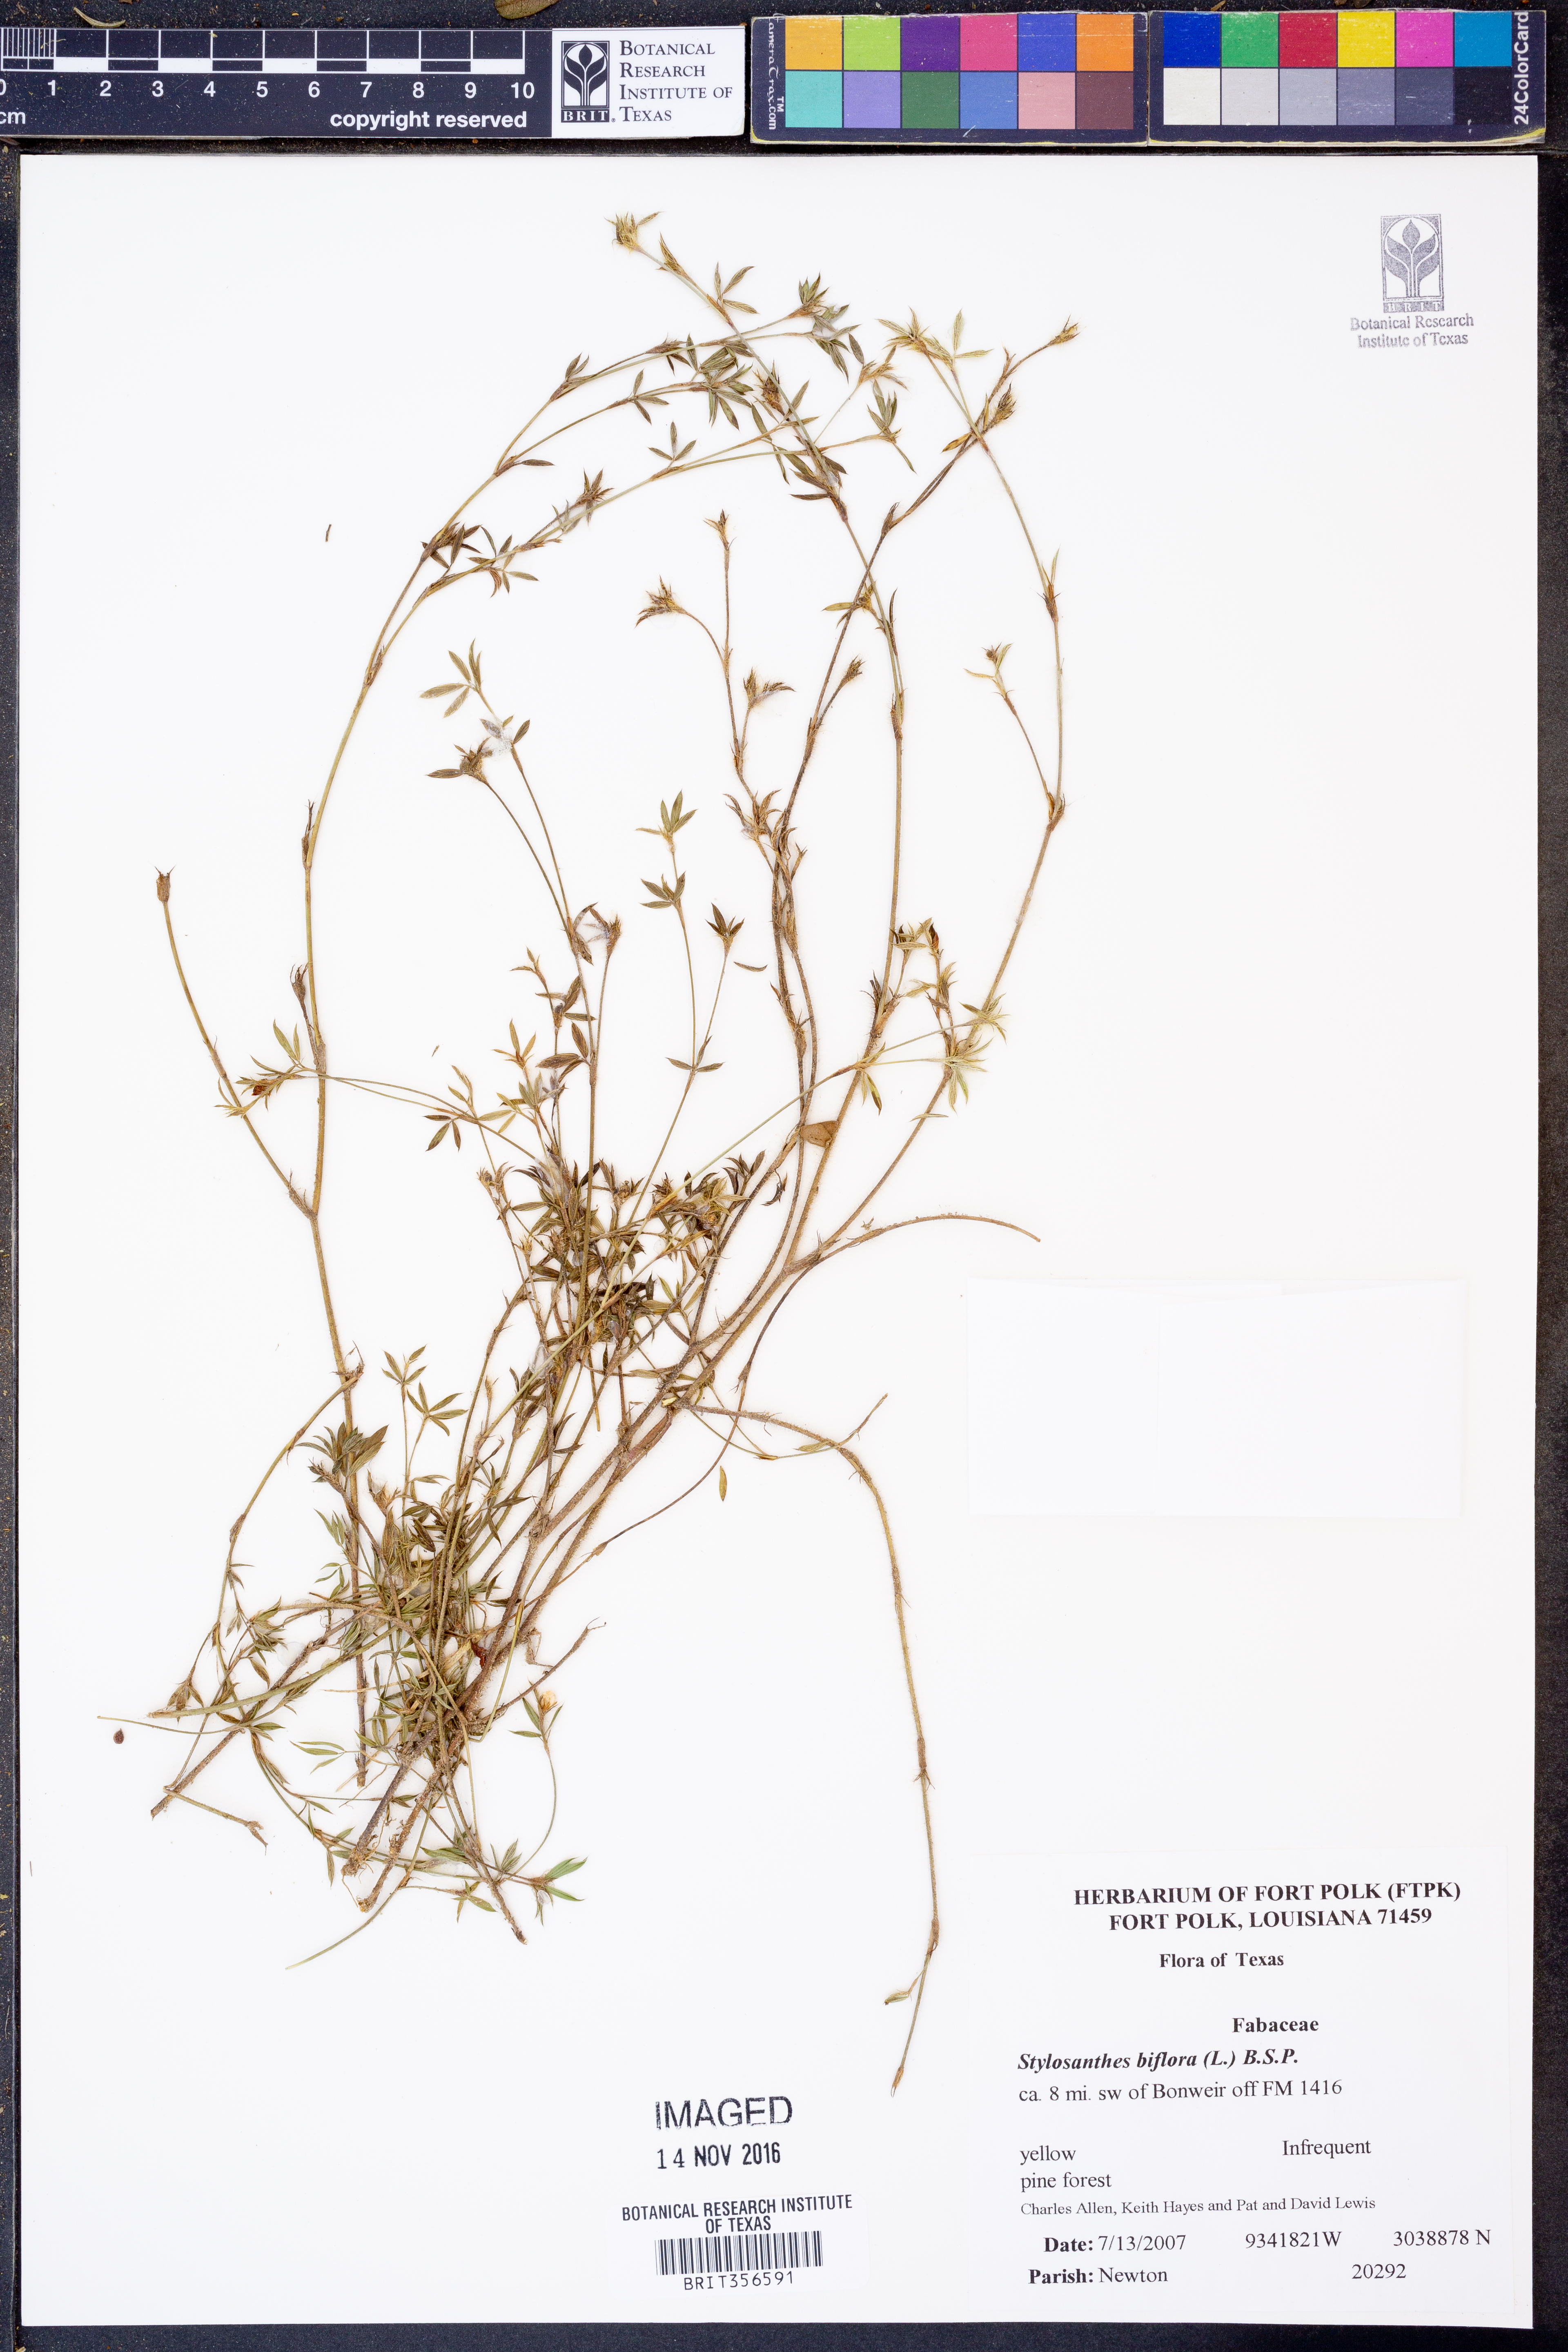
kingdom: Plantae
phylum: Tracheophyta
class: Magnoliopsida
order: Fabales
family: Fabaceae
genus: Stylosanthes
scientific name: Stylosanthes biflora
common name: Two-flower pencil-flower
